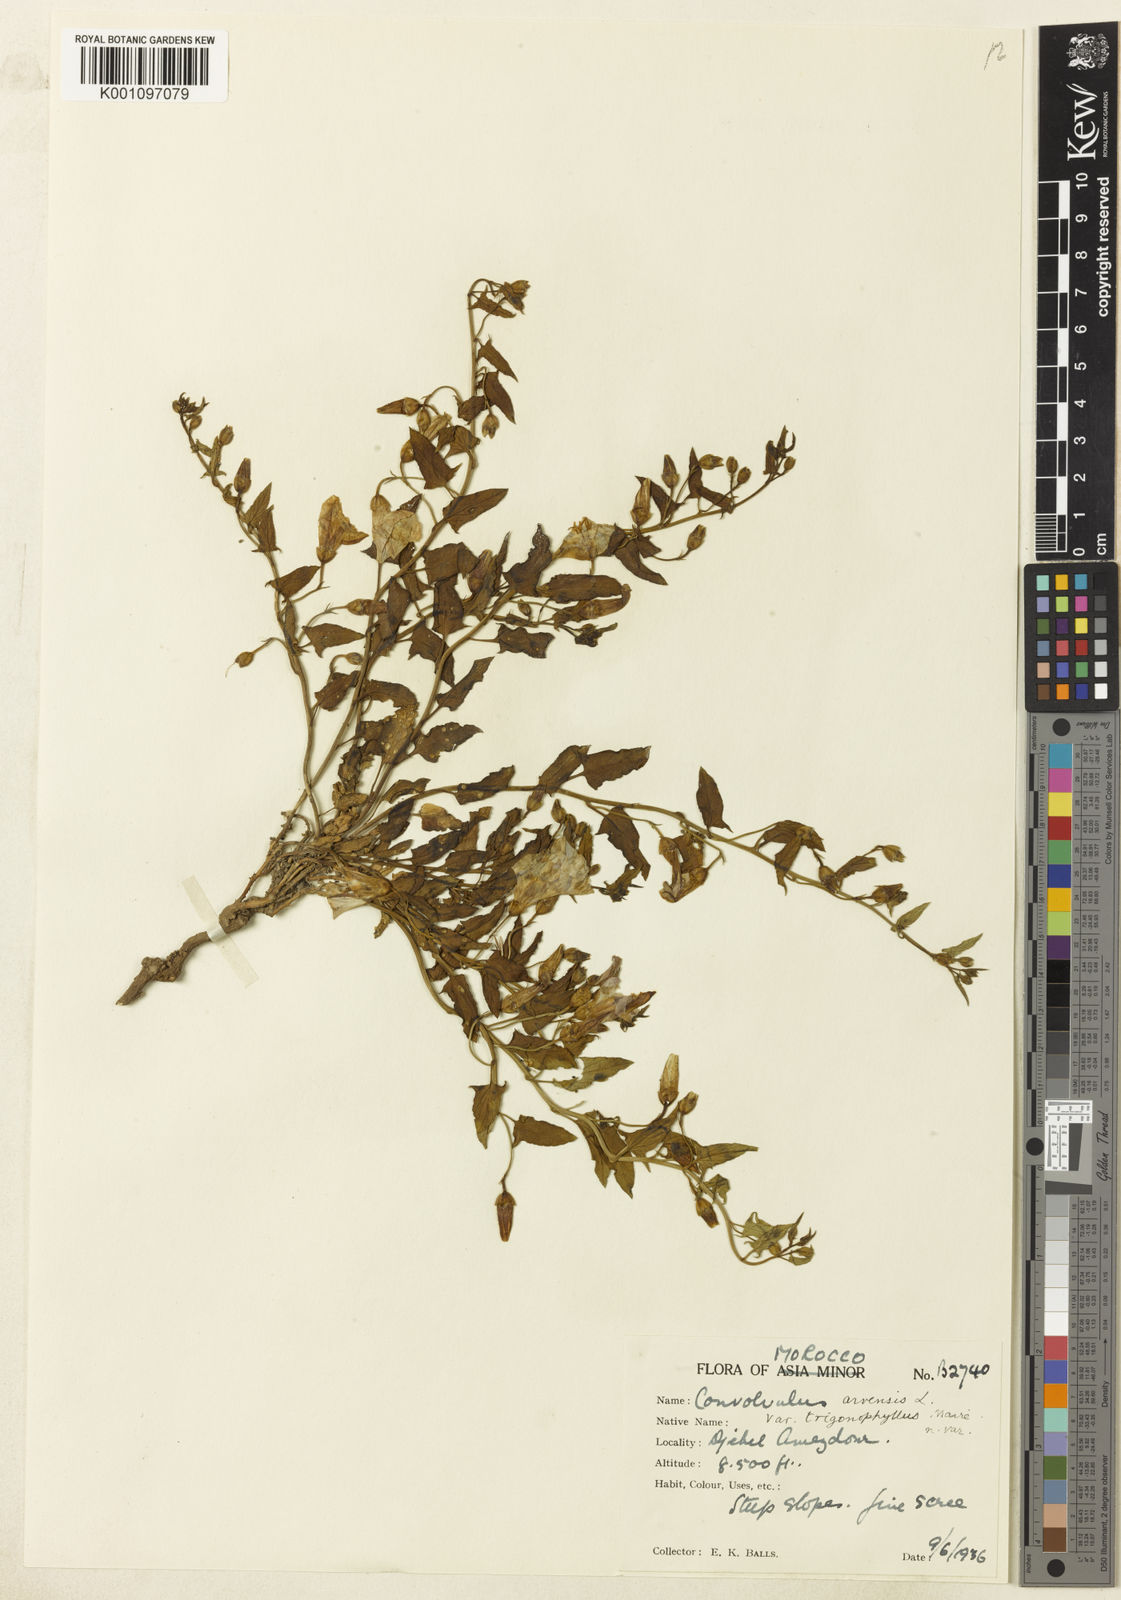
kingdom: Plantae
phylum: Tracheophyta
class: Magnoliopsida
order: Solanales
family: Convolvulaceae
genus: Convolvulus
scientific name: Convolvulus arvensis
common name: Field bindweed
